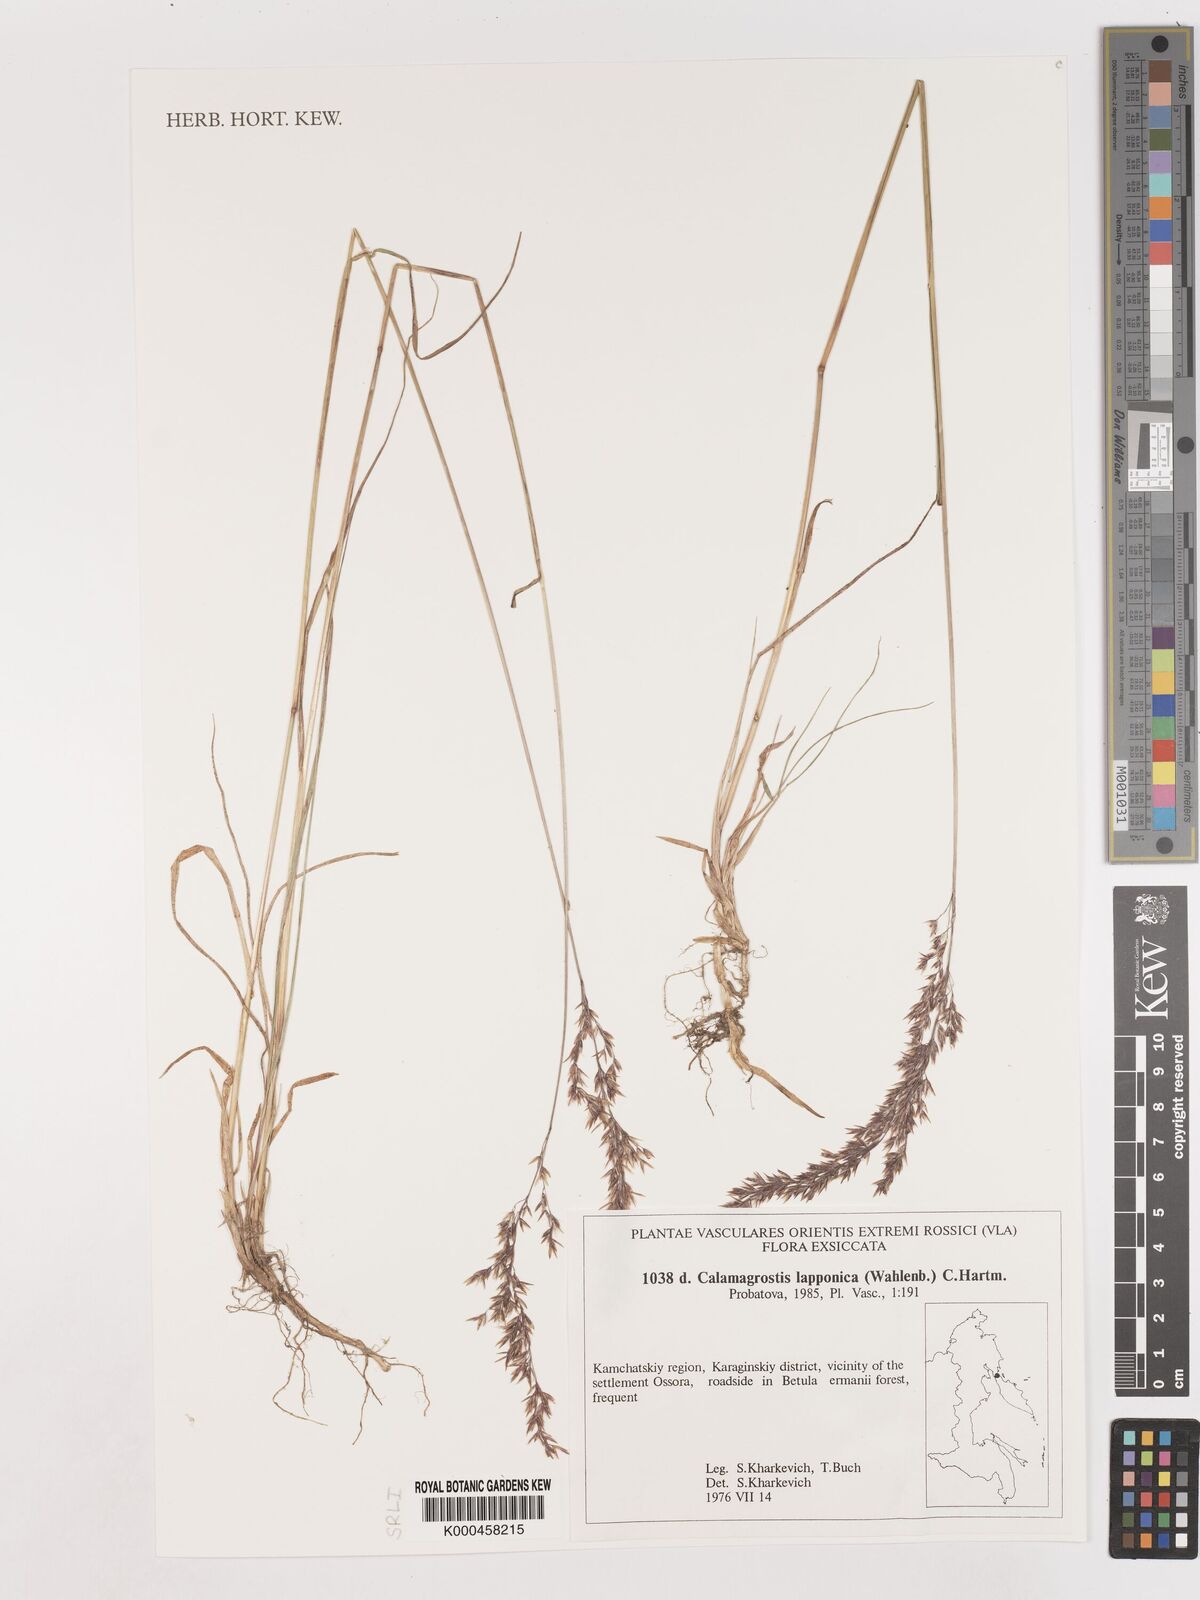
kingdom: Plantae
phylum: Tracheophyta
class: Liliopsida
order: Poales
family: Poaceae
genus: Calamagrostis
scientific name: Calamagrostis
